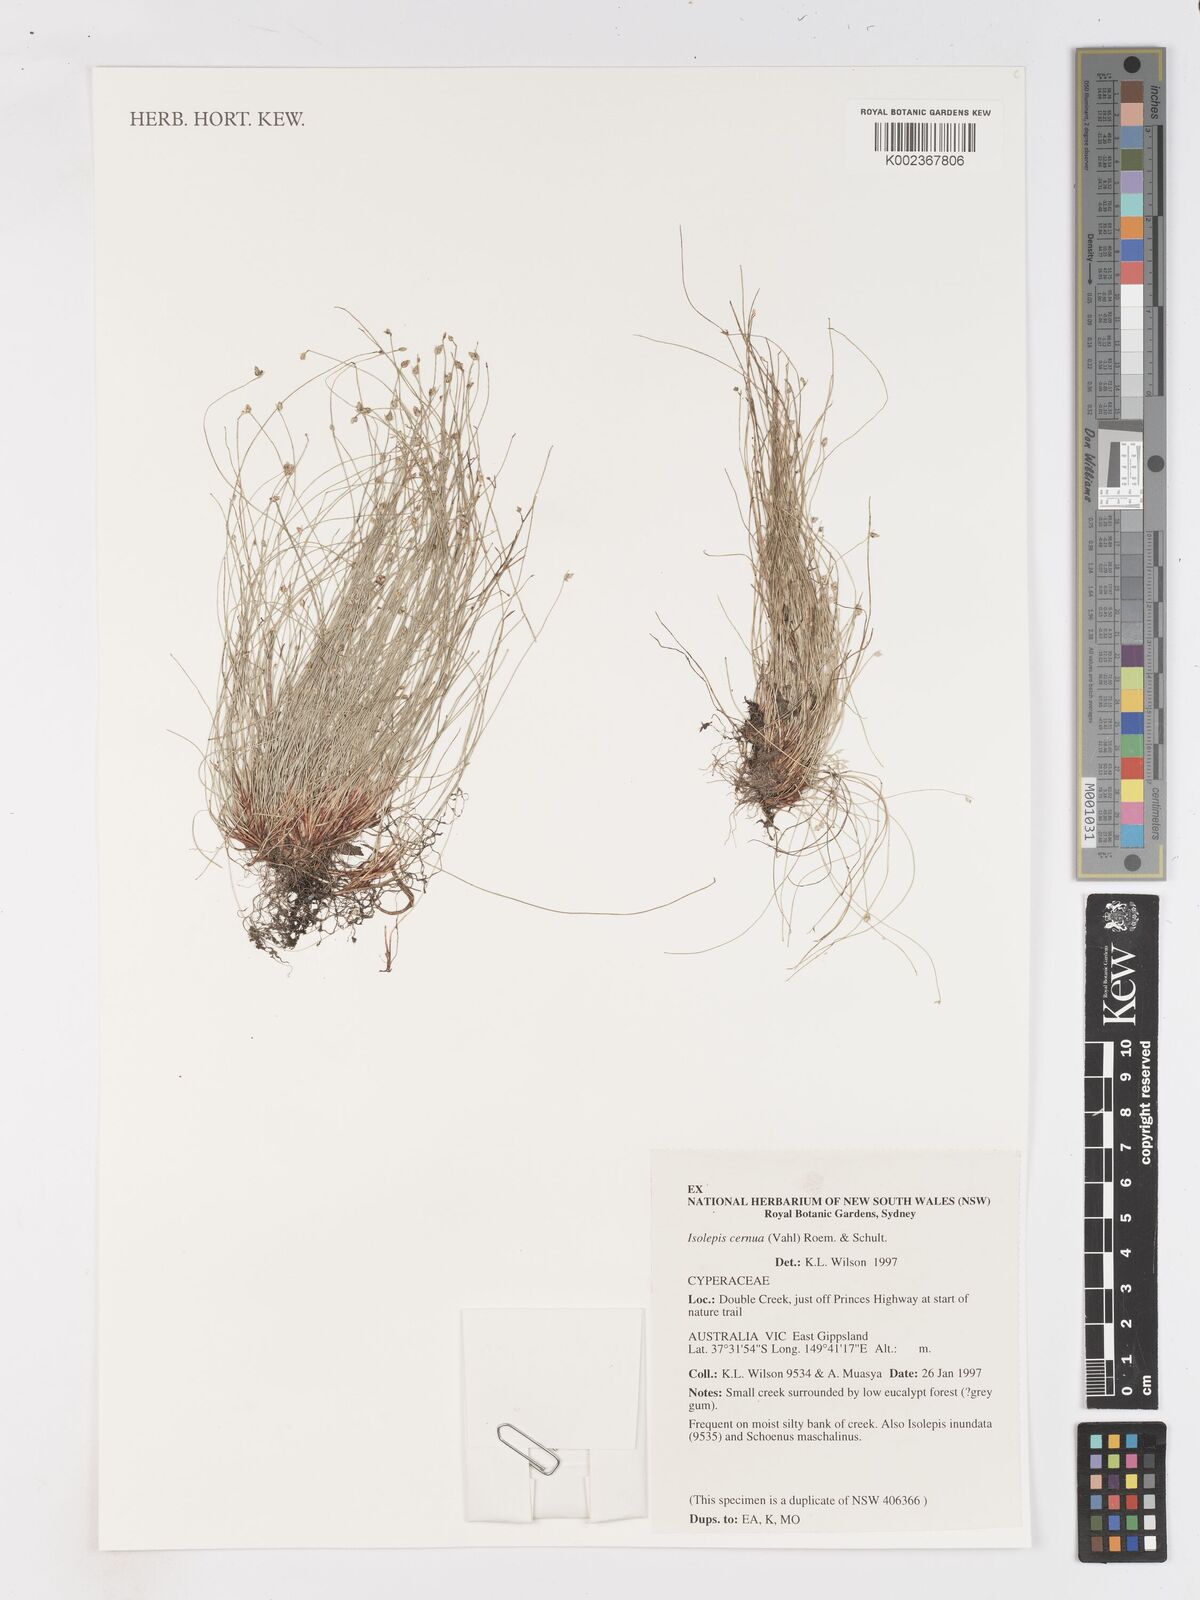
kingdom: Plantae
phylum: Tracheophyta
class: Liliopsida
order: Poales
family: Cyperaceae
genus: Isolepis
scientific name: Isolepis cernua
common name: Slender club-rush
